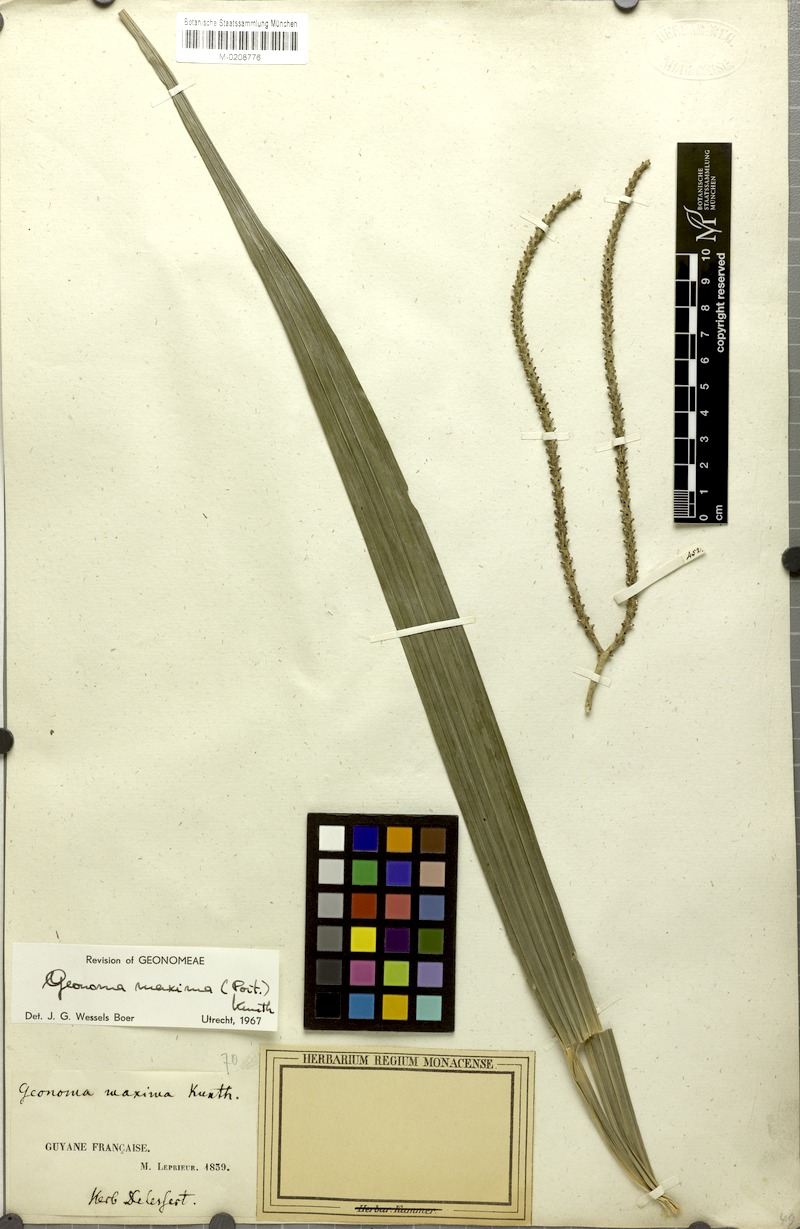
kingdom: Plantae
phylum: Tracheophyta
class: Liliopsida
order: Arecales
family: Arecaceae
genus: Geonoma
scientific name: Geonoma maxima
